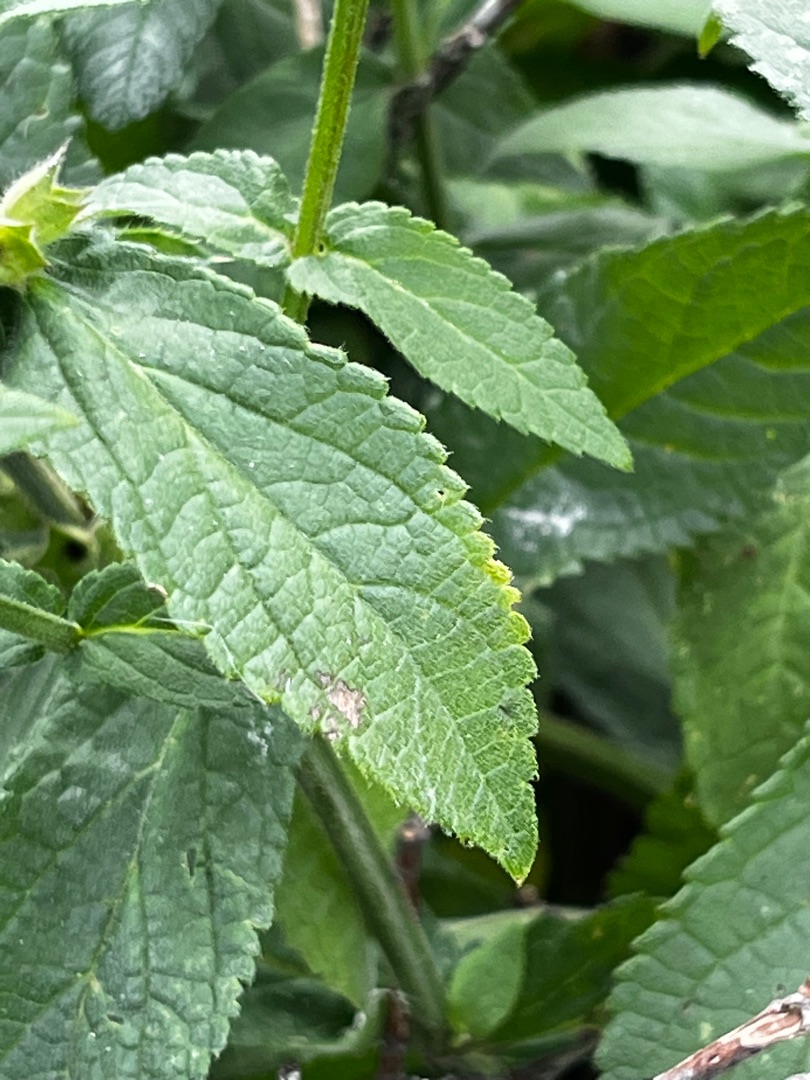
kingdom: Plantae
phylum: Tracheophyta
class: Magnoliopsida
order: Lamiales
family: Lamiaceae
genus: Stachys
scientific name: Stachys palustris
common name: Kær-galtetand
